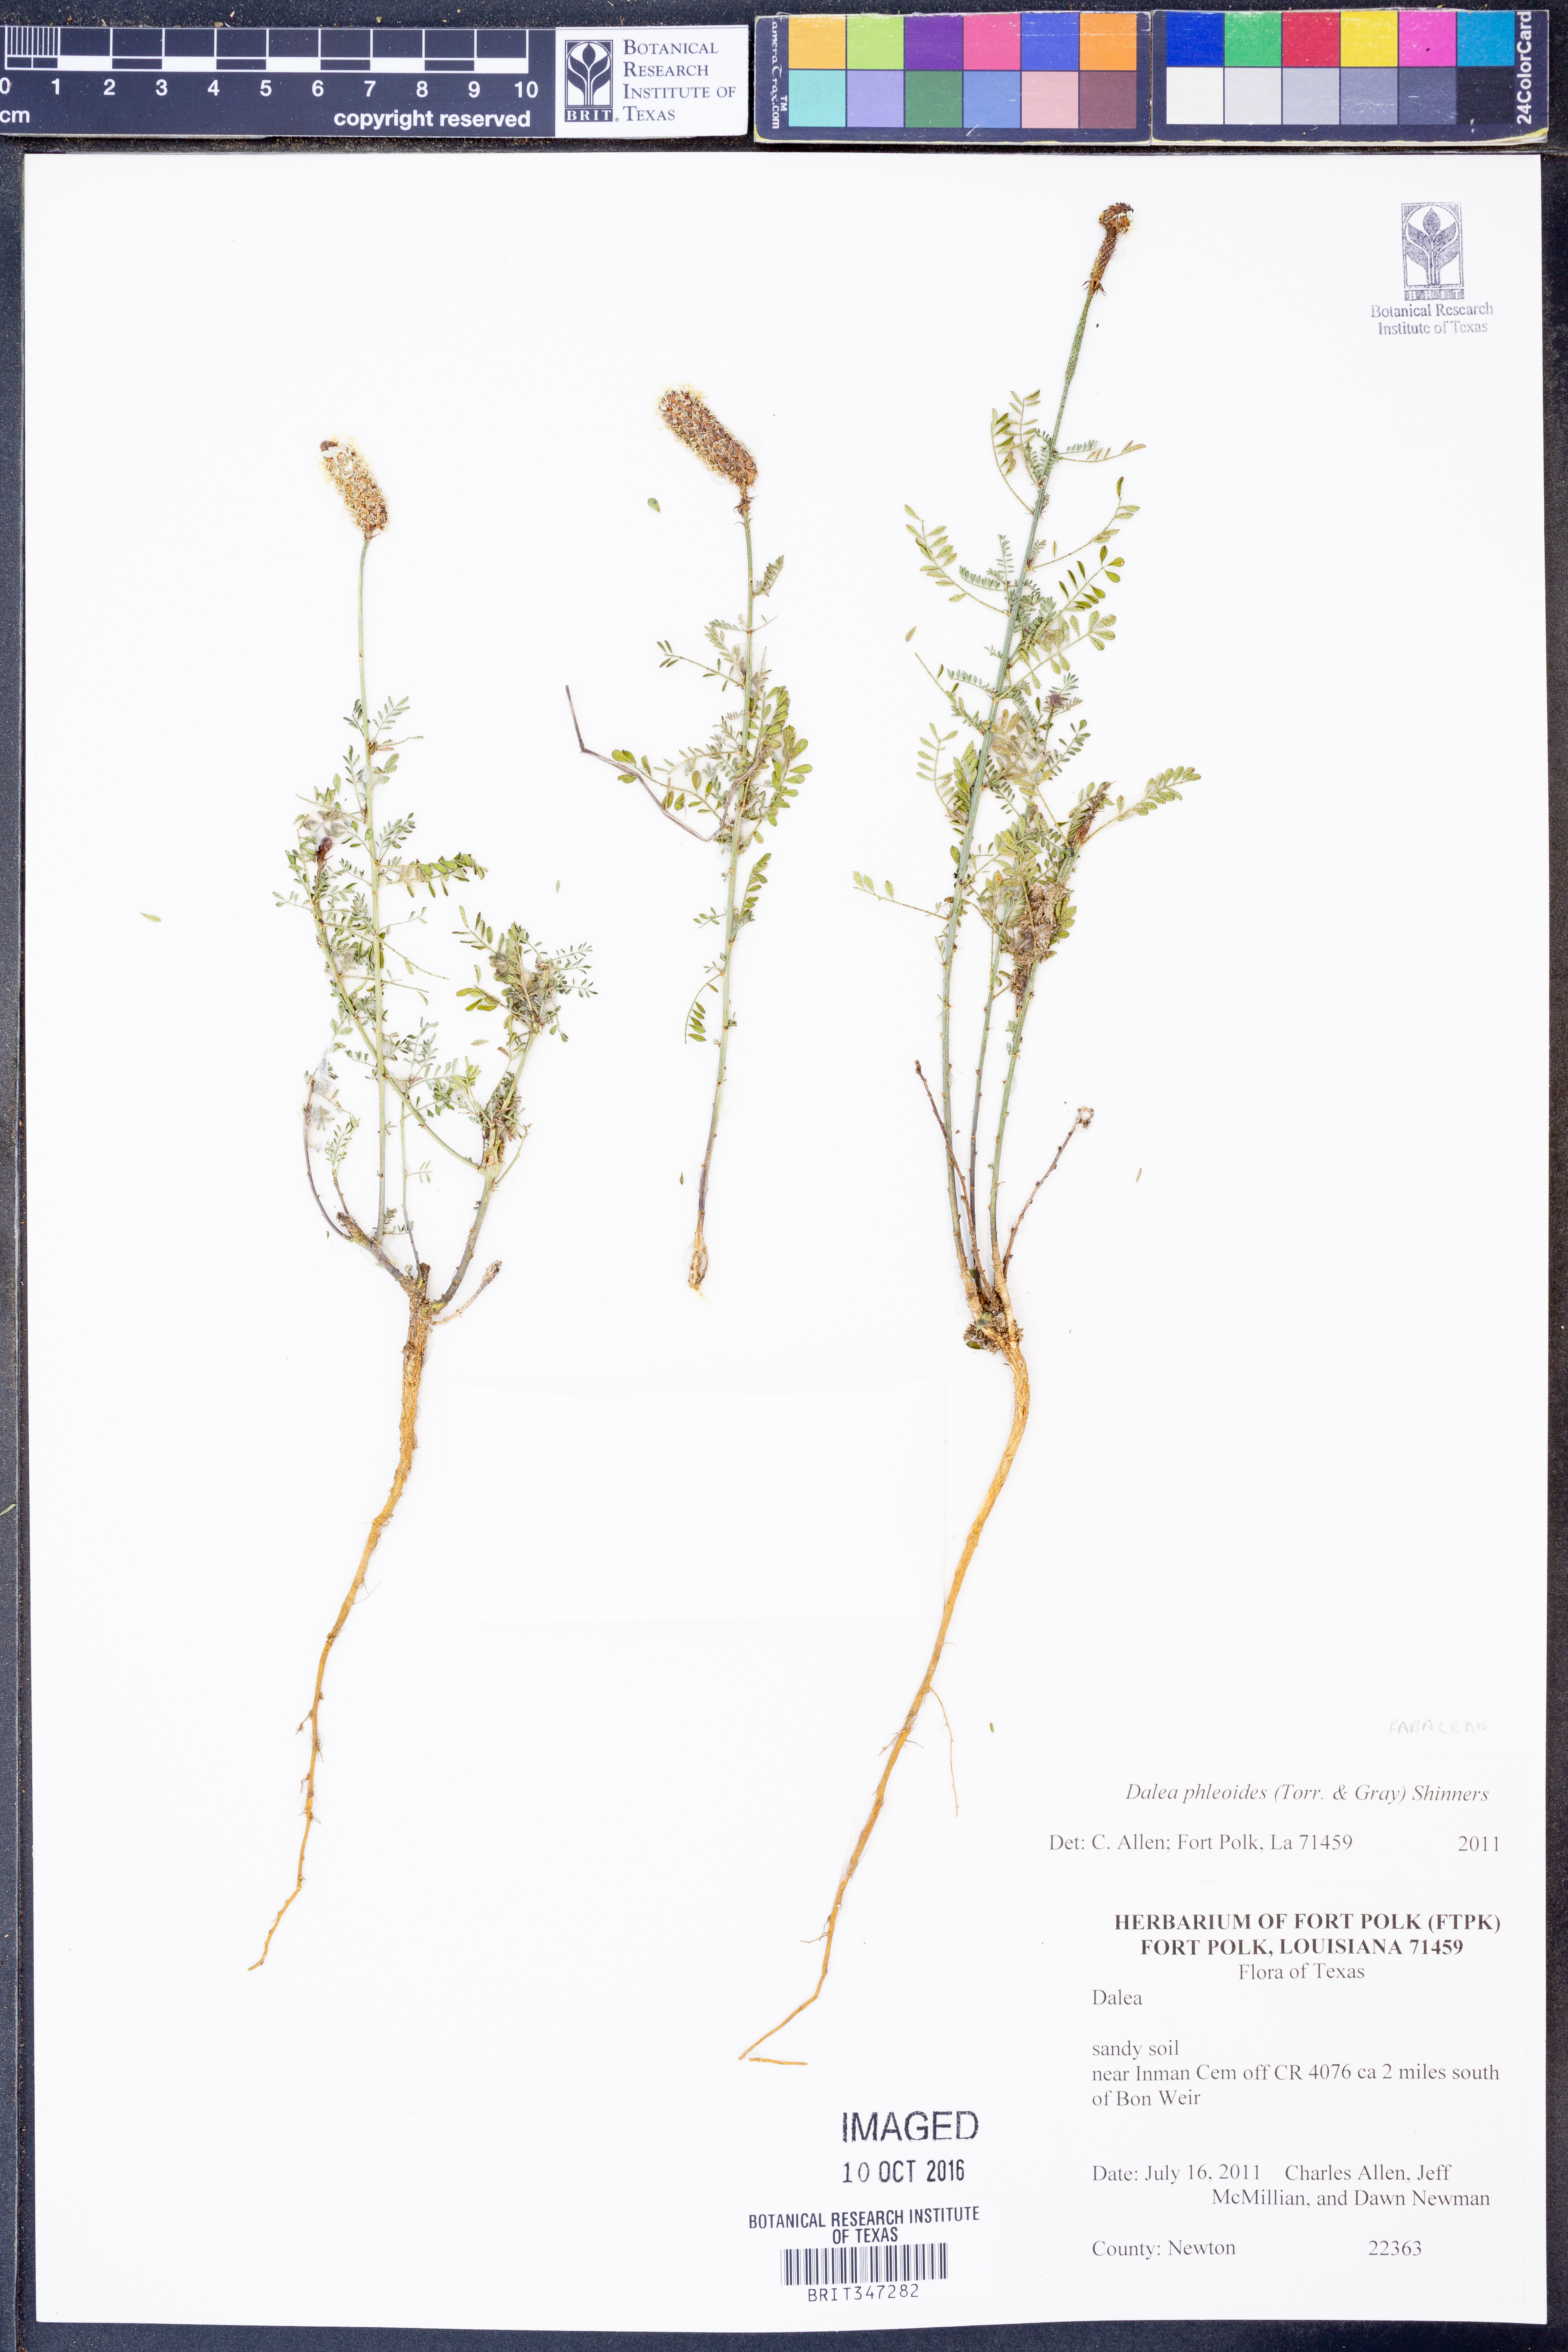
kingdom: Plantae
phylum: Tracheophyta
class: Magnoliopsida
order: Fabales
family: Fabaceae
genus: Dalea
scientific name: Dalea phleoides
